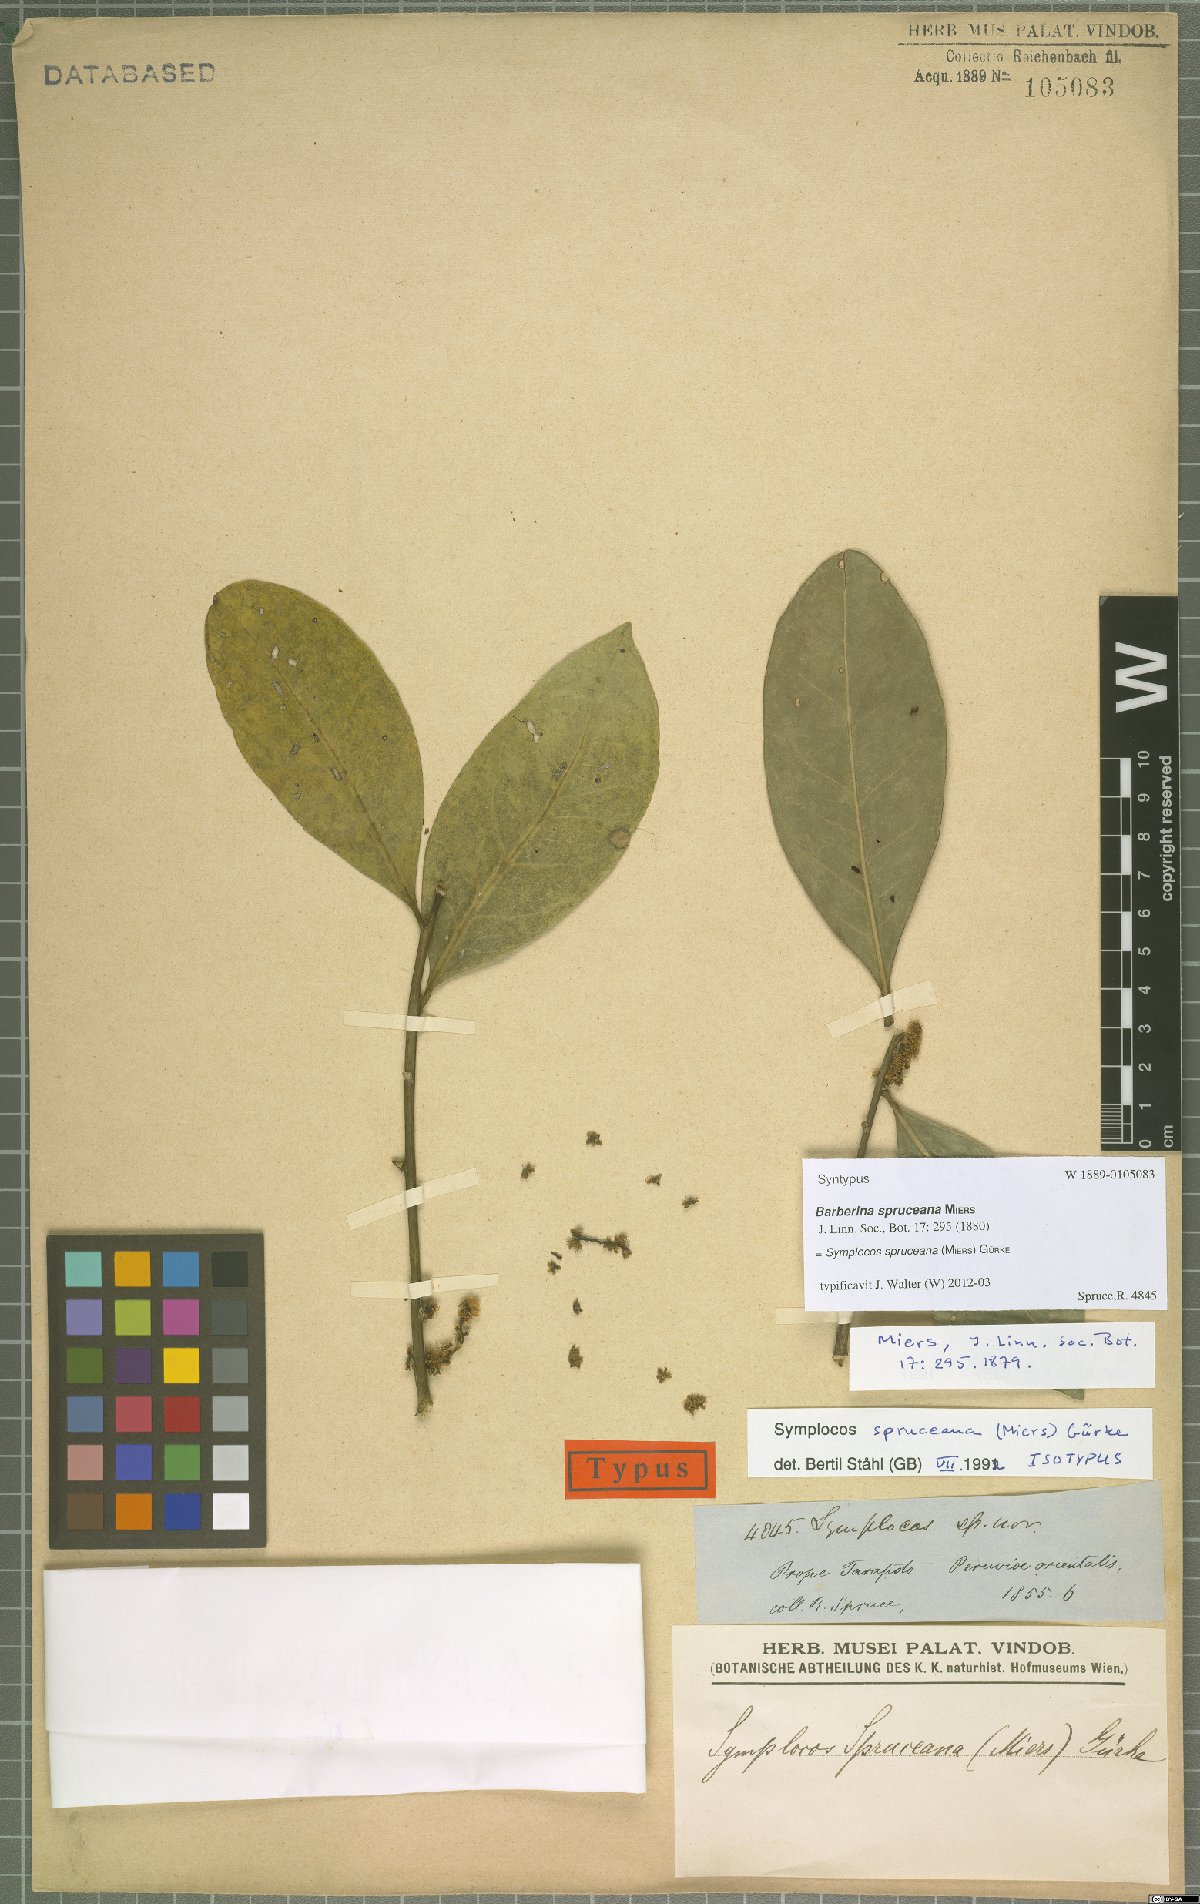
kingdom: Plantae
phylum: Tracheophyta
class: Magnoliopsida
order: Ericales
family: Symplocaceae
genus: Symplocos
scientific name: Symplocos spruceana
